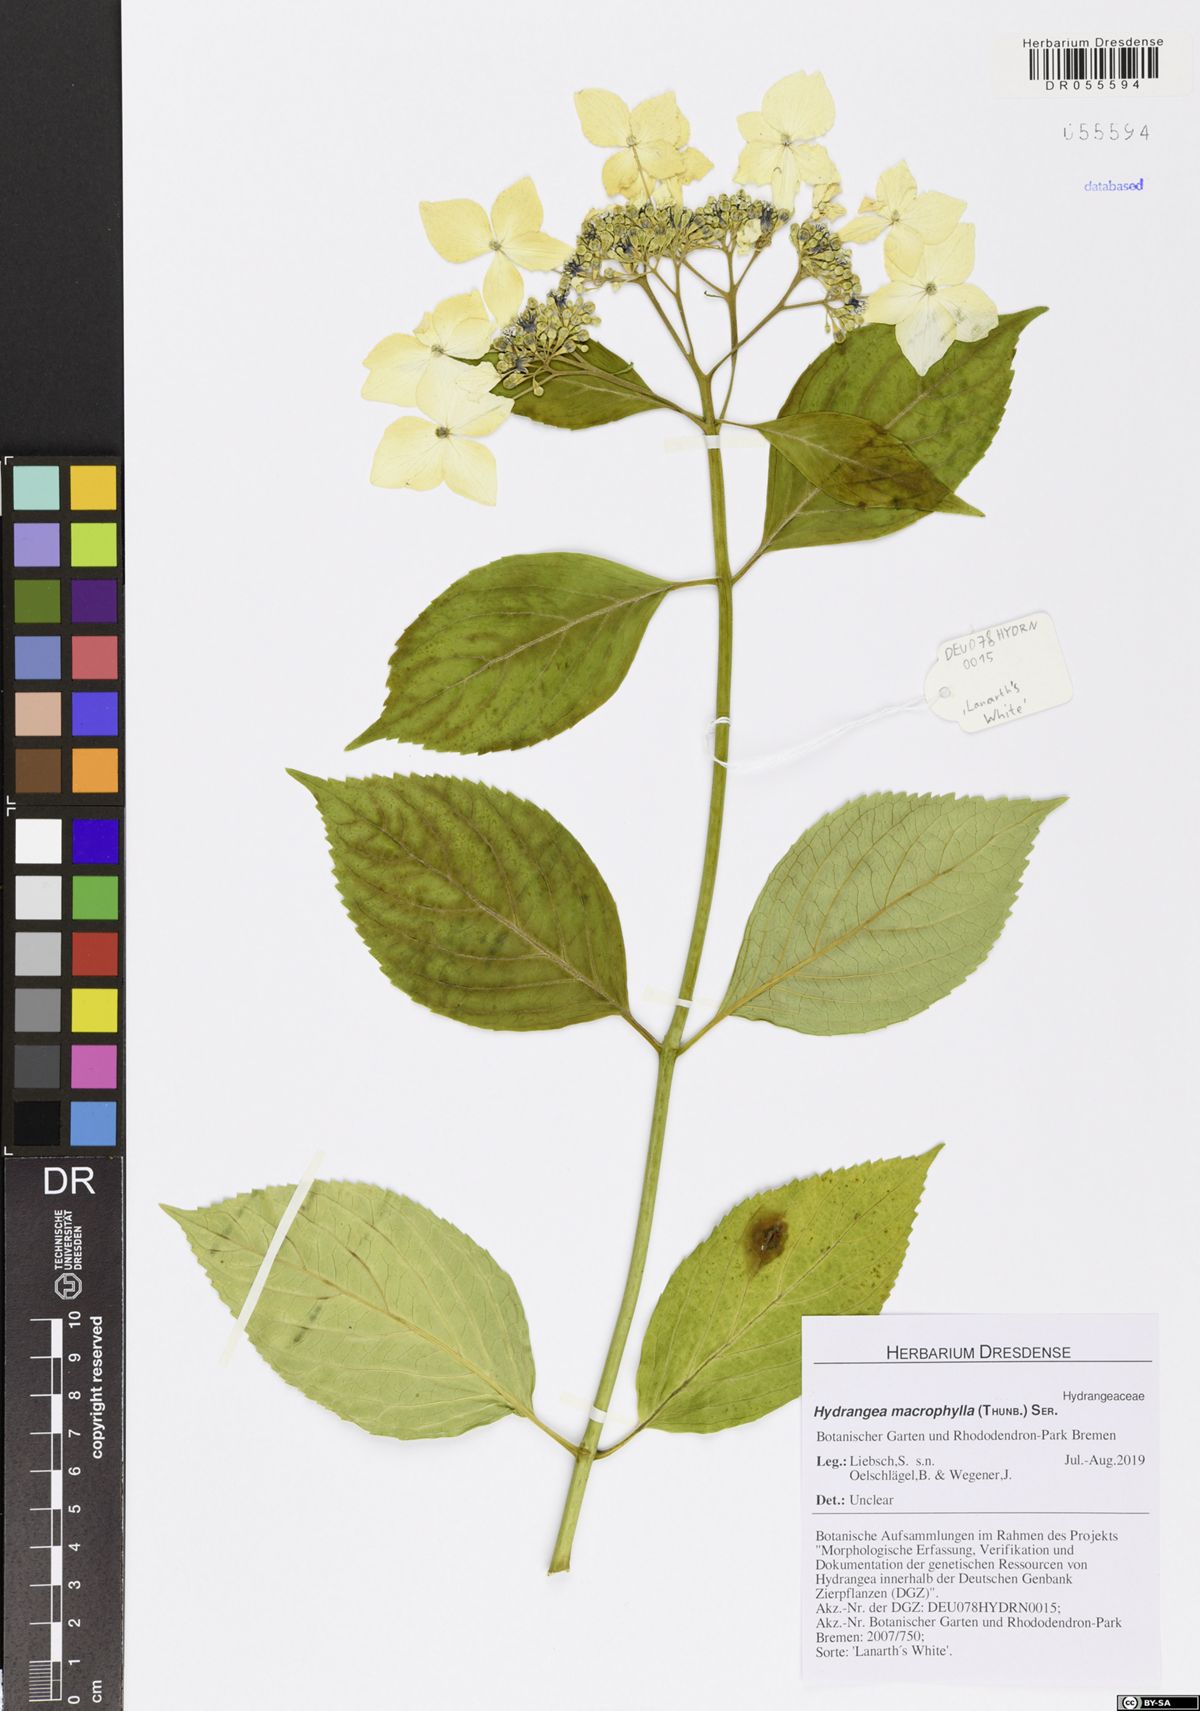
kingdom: Plantae
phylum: Tracheophyta
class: Magnoliopsida
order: Cornales
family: Hydrangeaceae
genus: Hydrangea
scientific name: Hydrangea macrophylla
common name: Hydrangea
